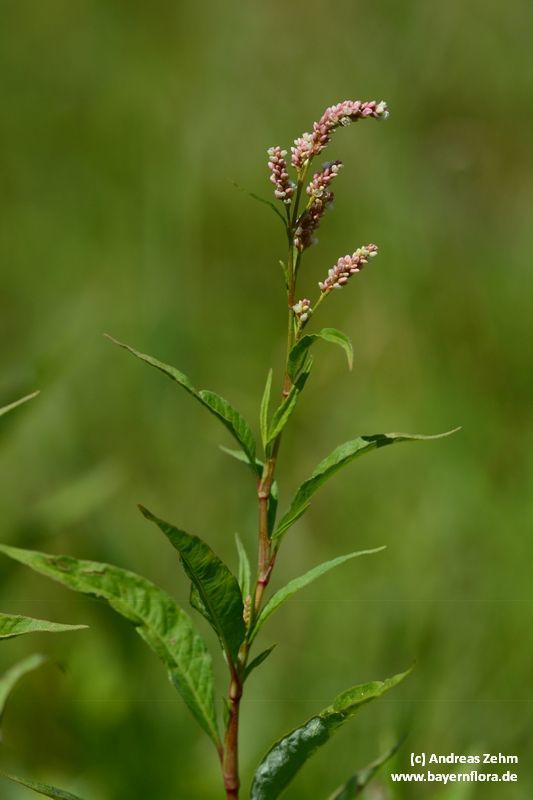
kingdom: Plantae
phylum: Tracheophyta
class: Magnoliopsida
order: Caryophyllales
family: Polygonaceae
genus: Persicaria
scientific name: Persicaria maculosa
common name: Redshank
